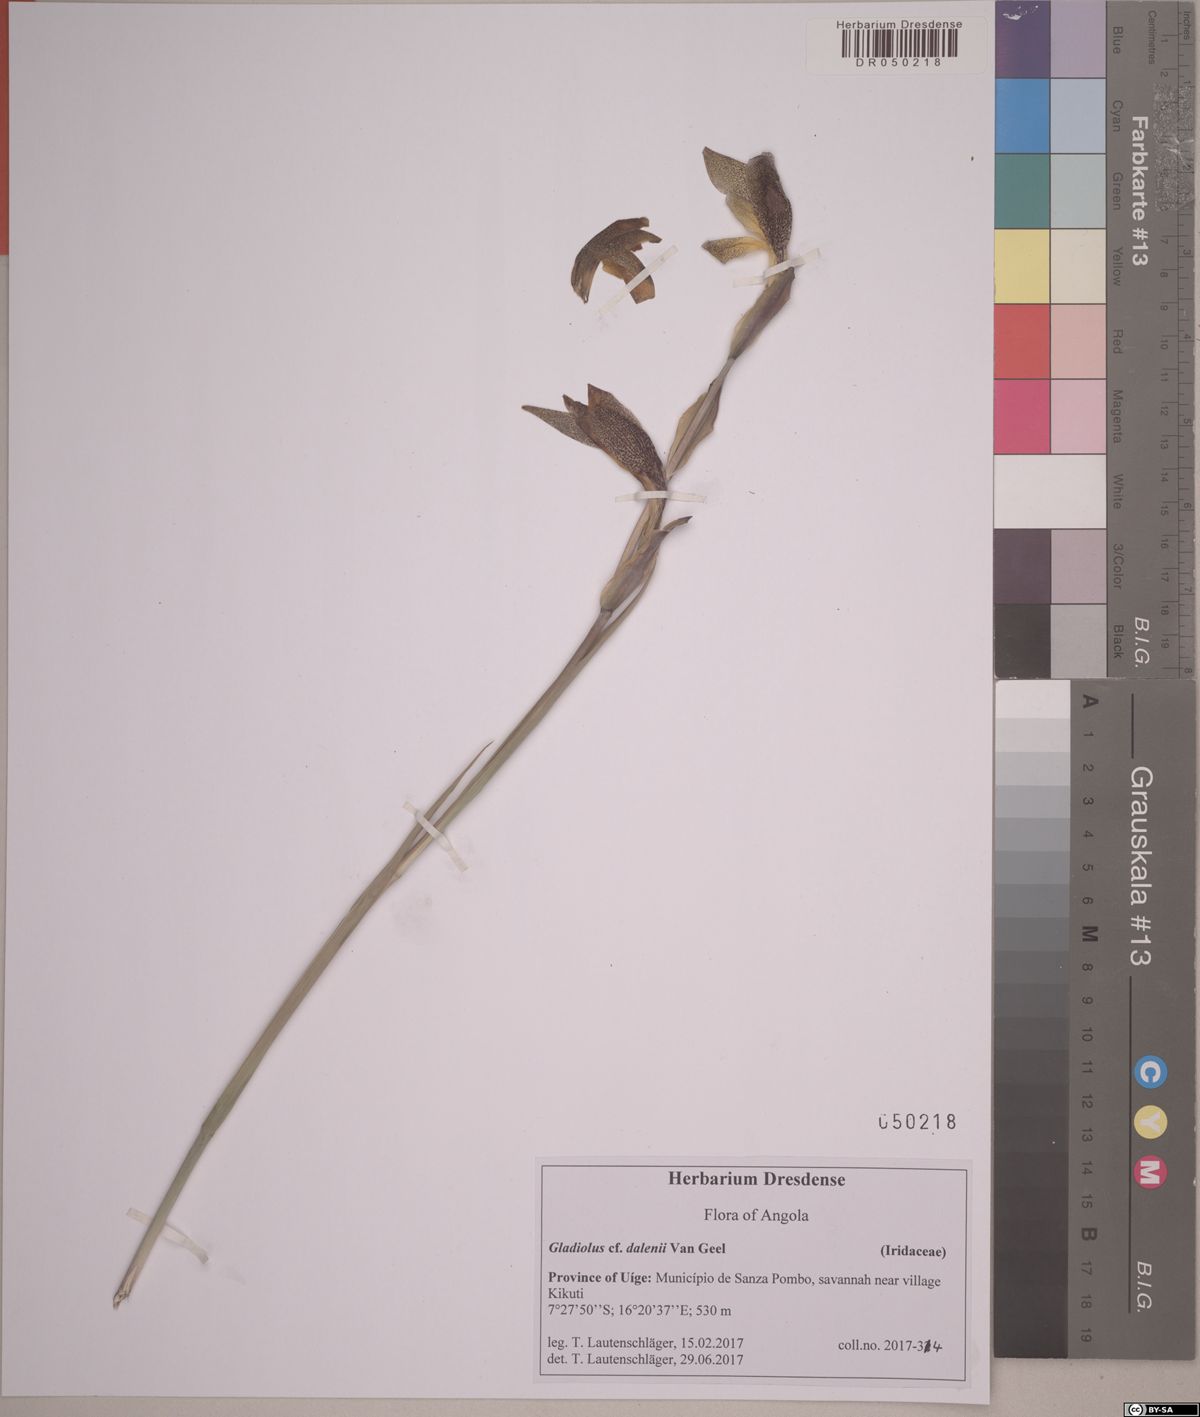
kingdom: Plantae
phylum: Tracheophyta
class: Liliopsida
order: Asparagales
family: Iridaceae
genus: Gladiolus
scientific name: Gladiolus dalenii
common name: Cornflag
